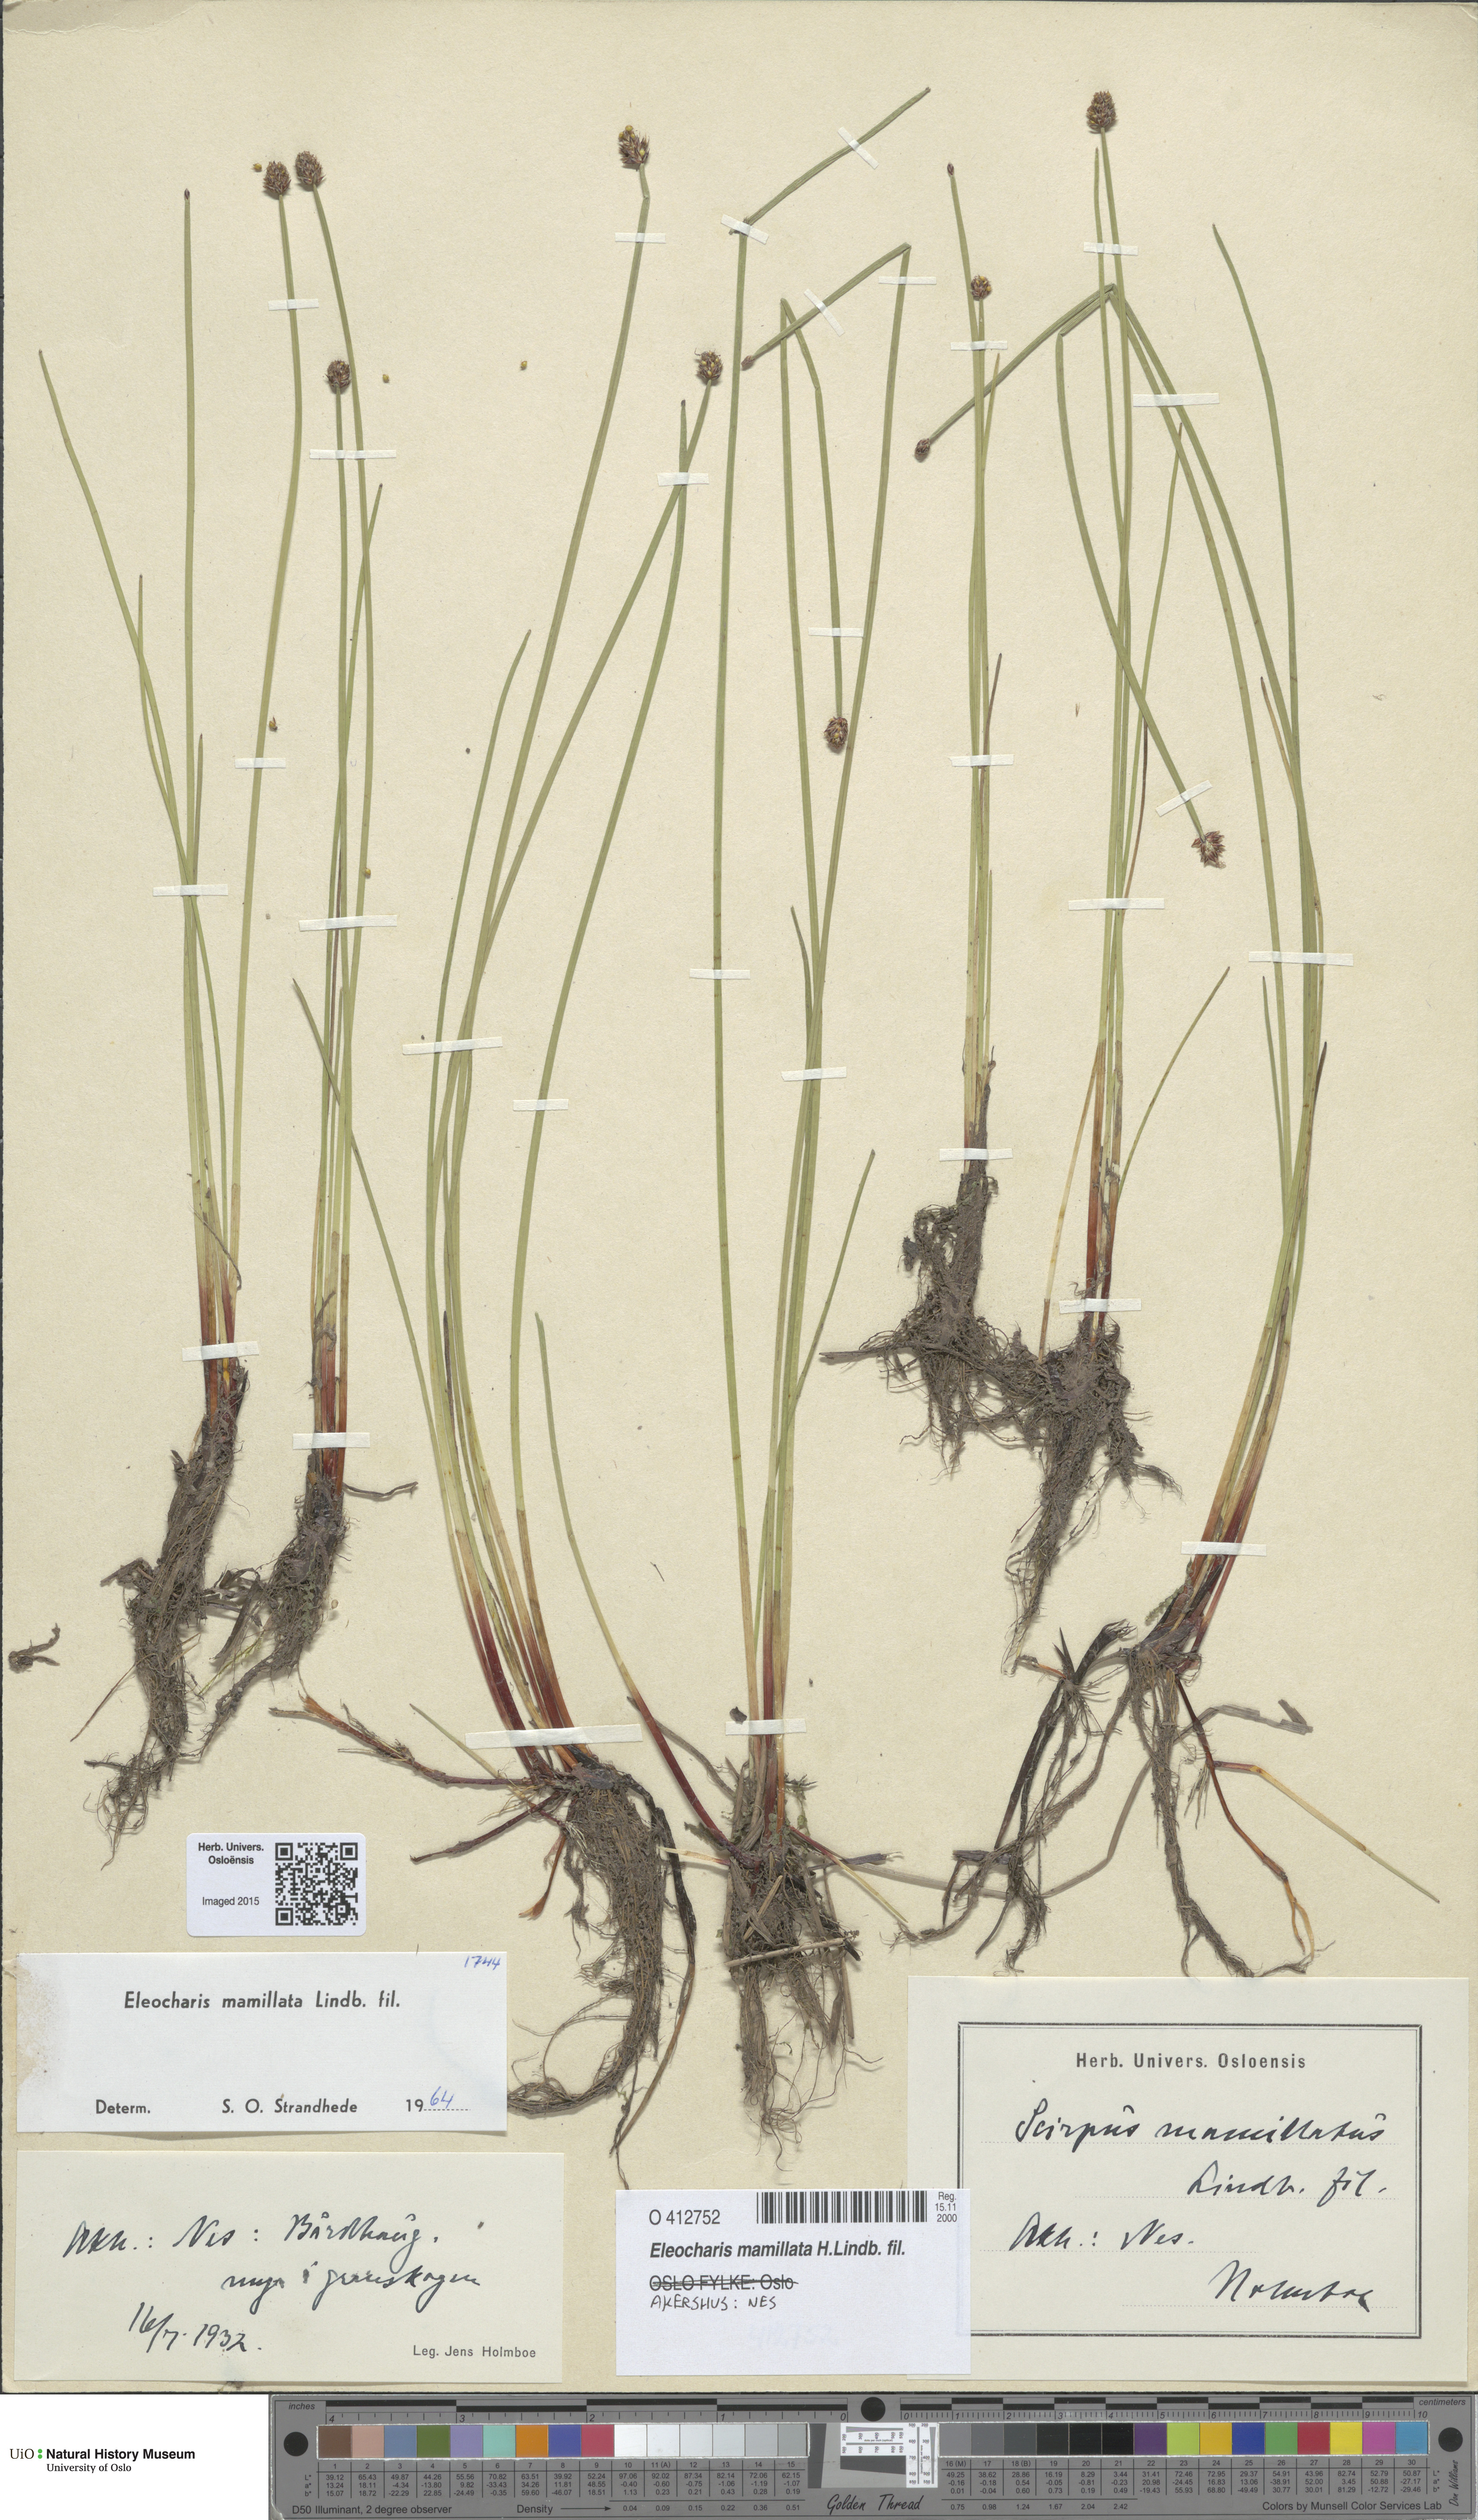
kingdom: Plantae
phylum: Tracheophyta
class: Liliopsida
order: Poales
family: Cyperaceae
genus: Eleocharis
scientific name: Eleocharis mamillata
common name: Northern spike-rush
